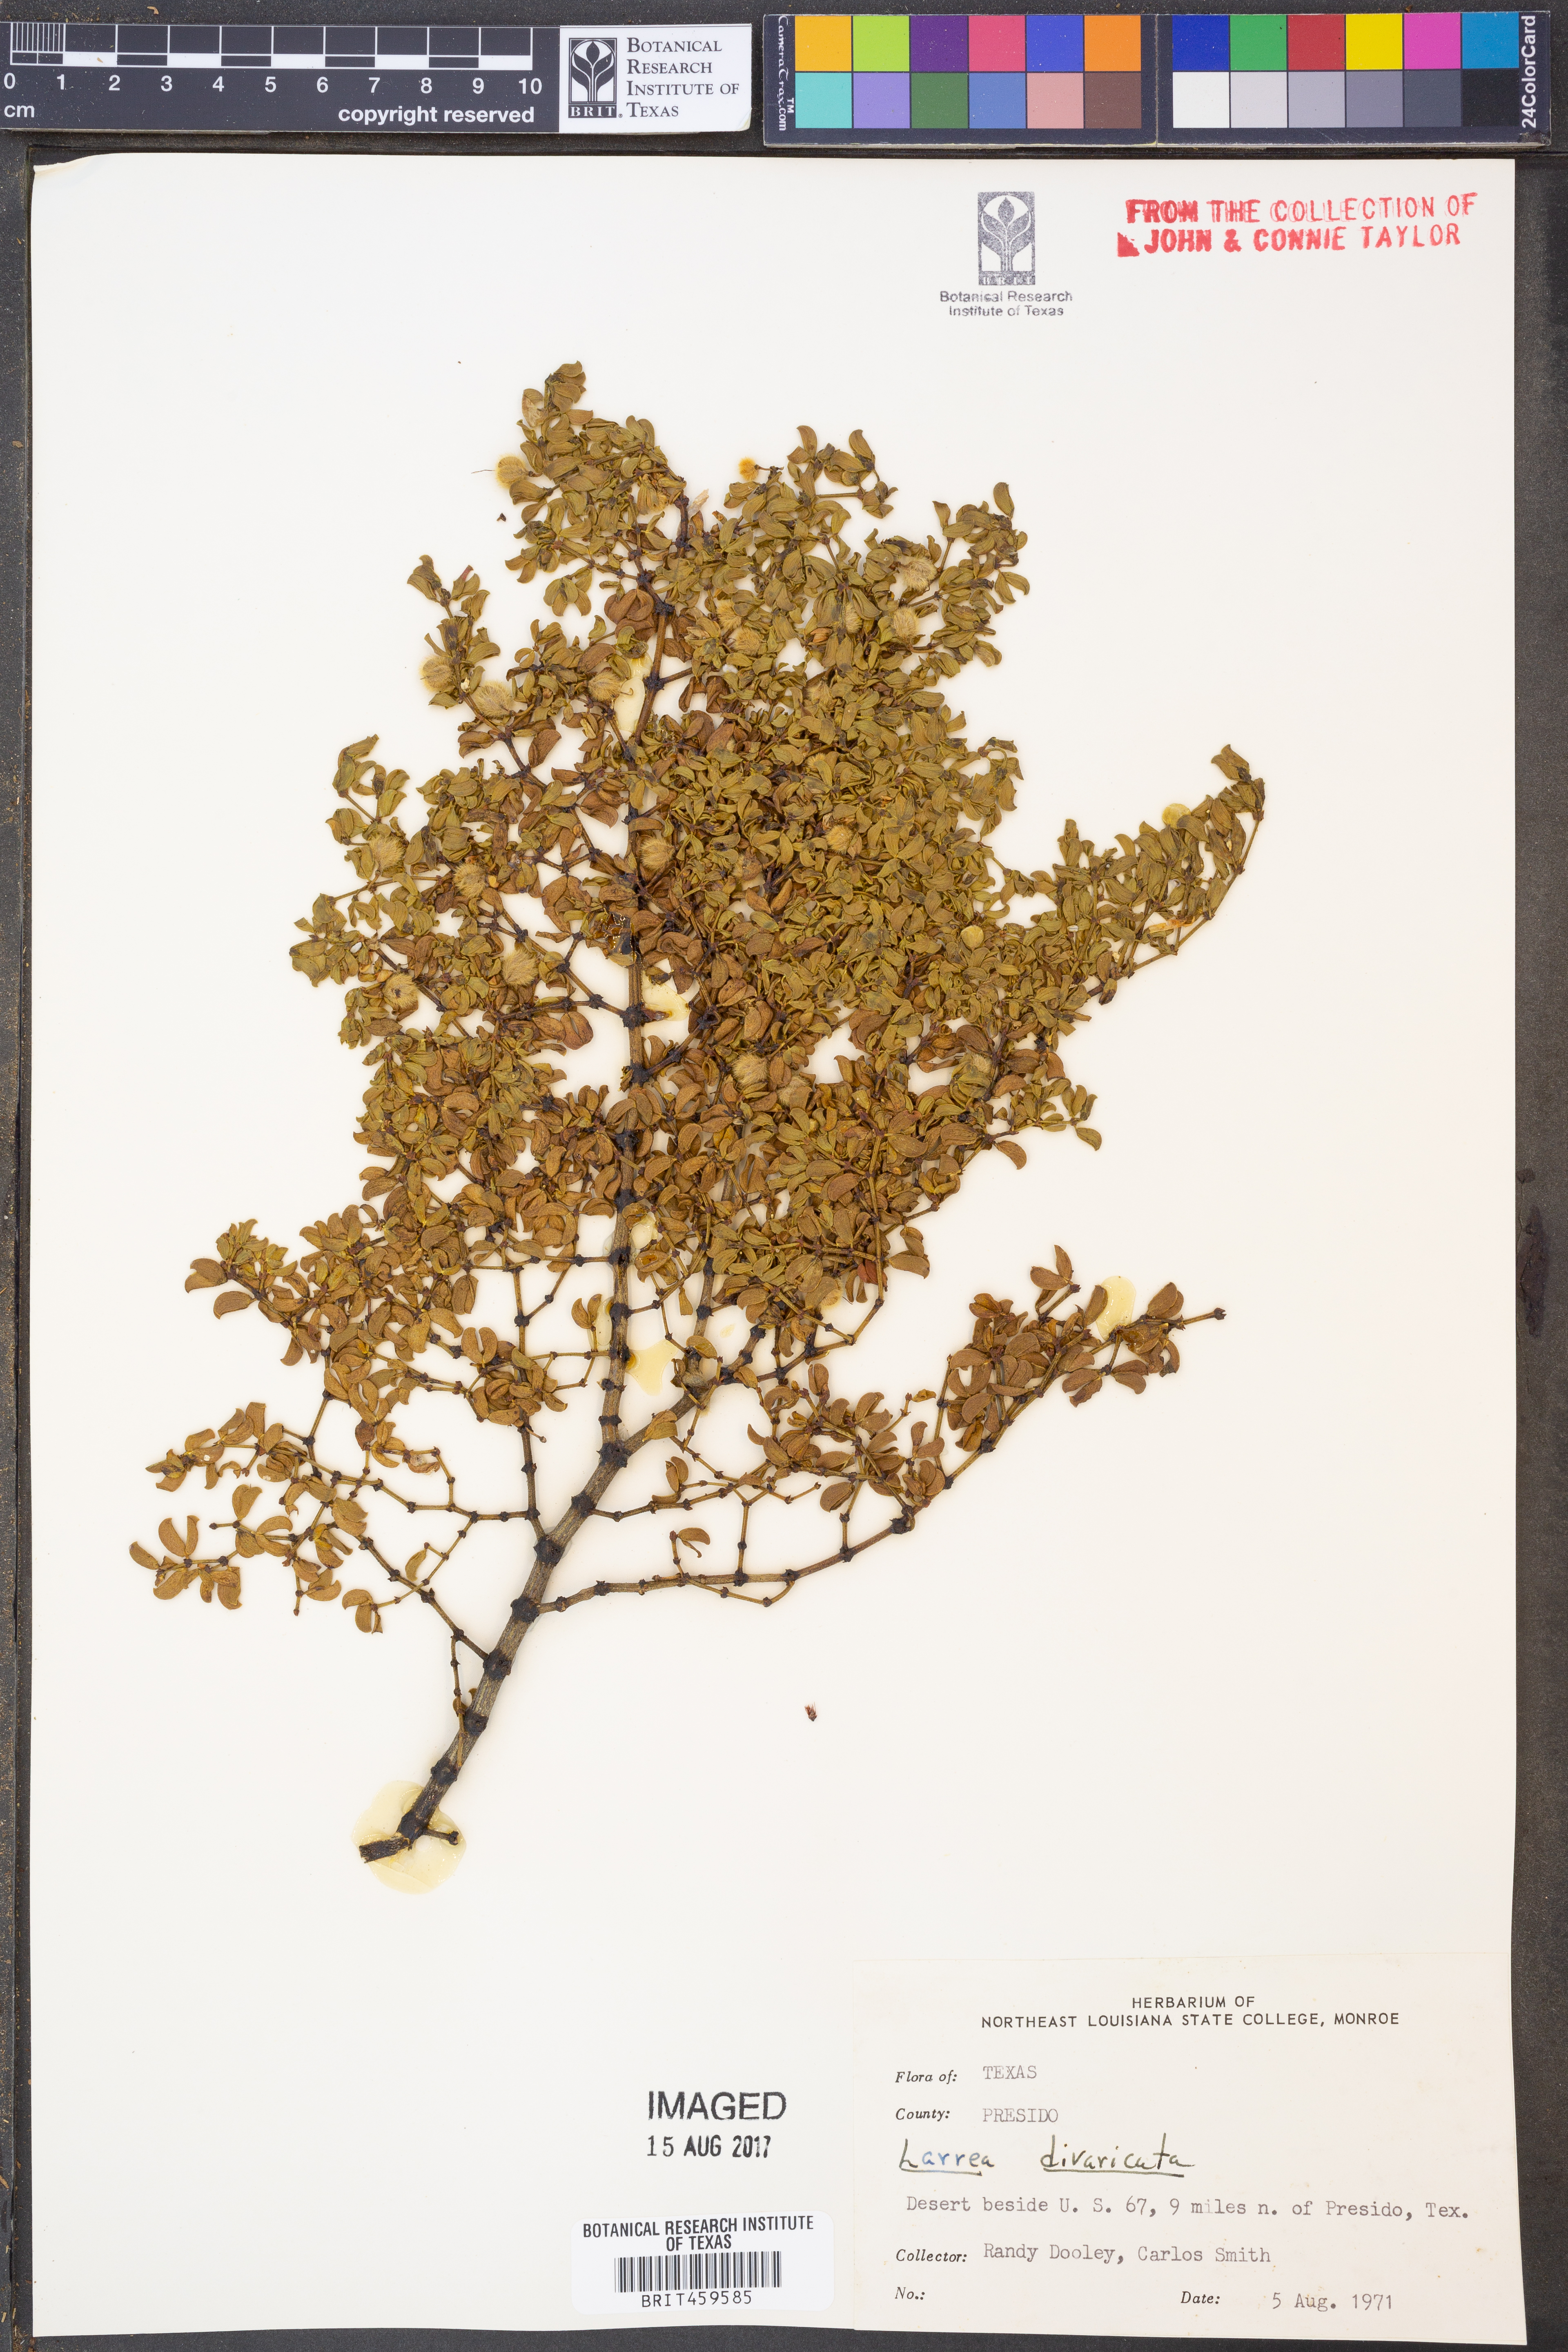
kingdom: Plantae
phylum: Tracheophyta
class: Magnoliopsida
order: Zygophyllales
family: Zygophyllaceae
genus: Larrea
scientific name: Larrea divaricata
